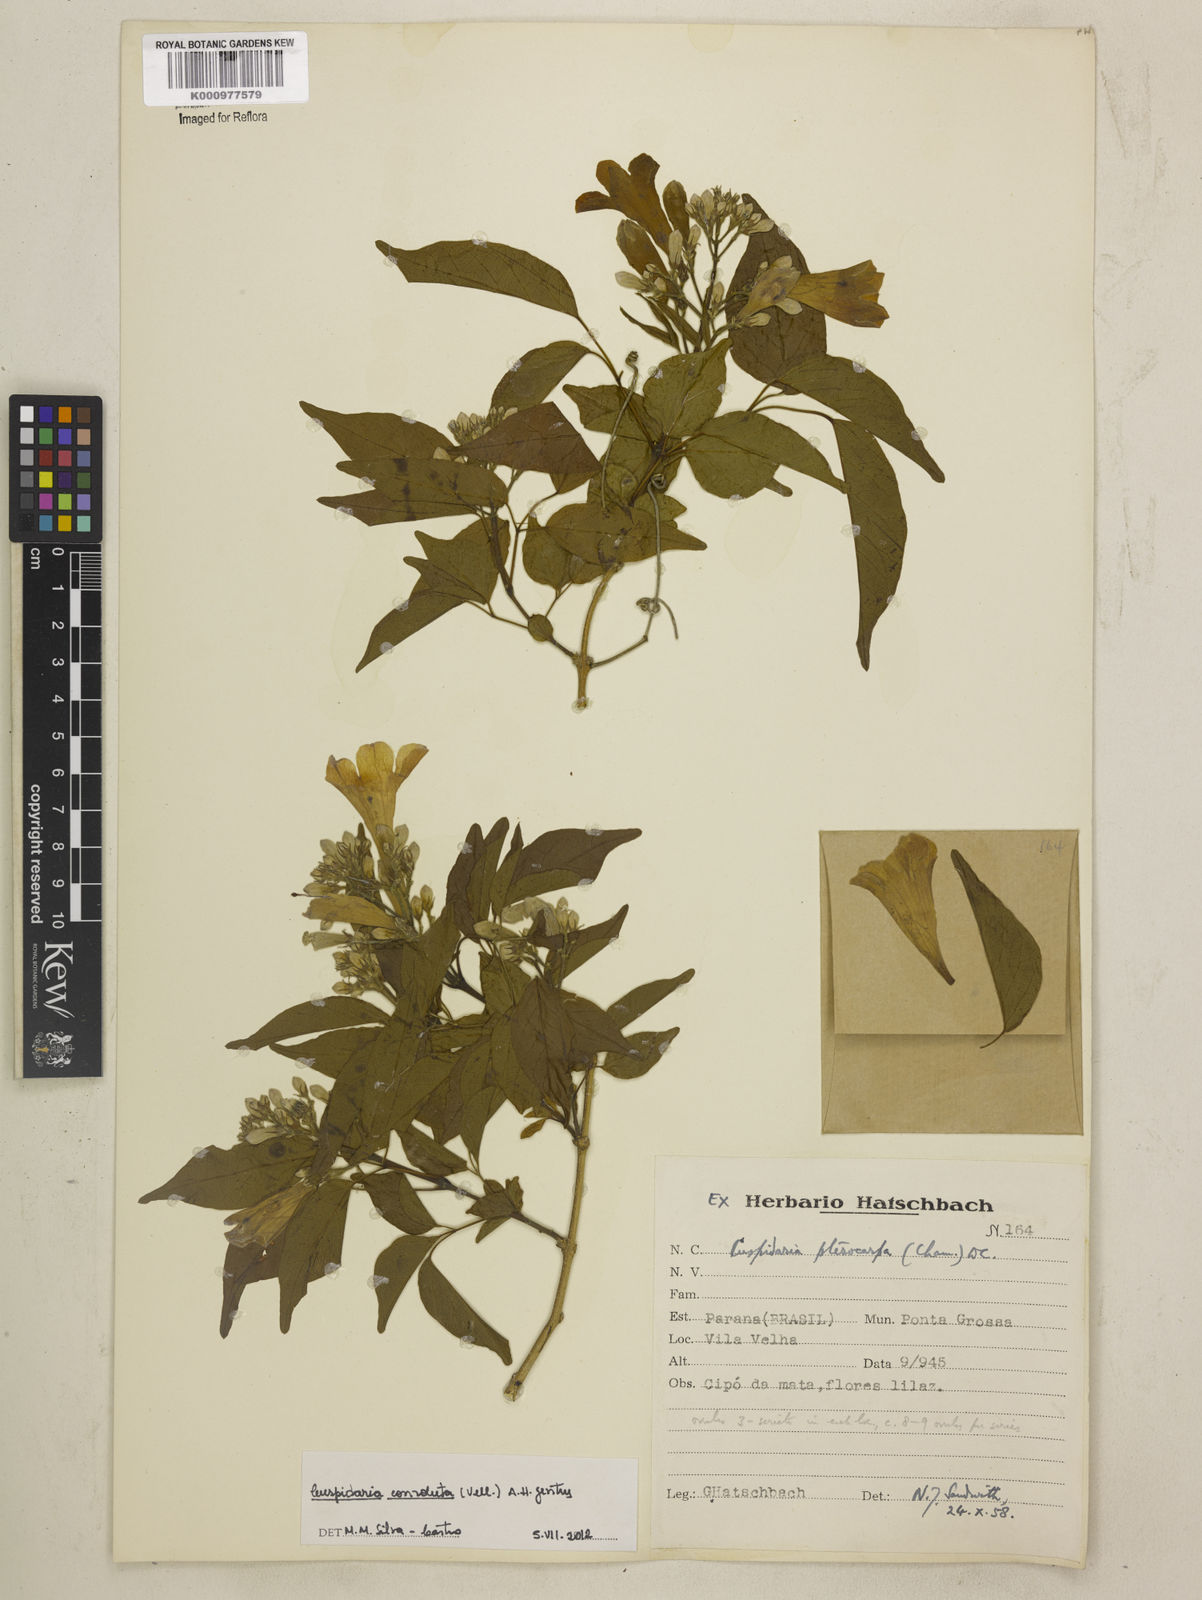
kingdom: Plantae
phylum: Tracheophyta
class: Magnoliopsida
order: Lamiales
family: Bignoniaceae
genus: Cuspidaria
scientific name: Cuspidaria convoluta
